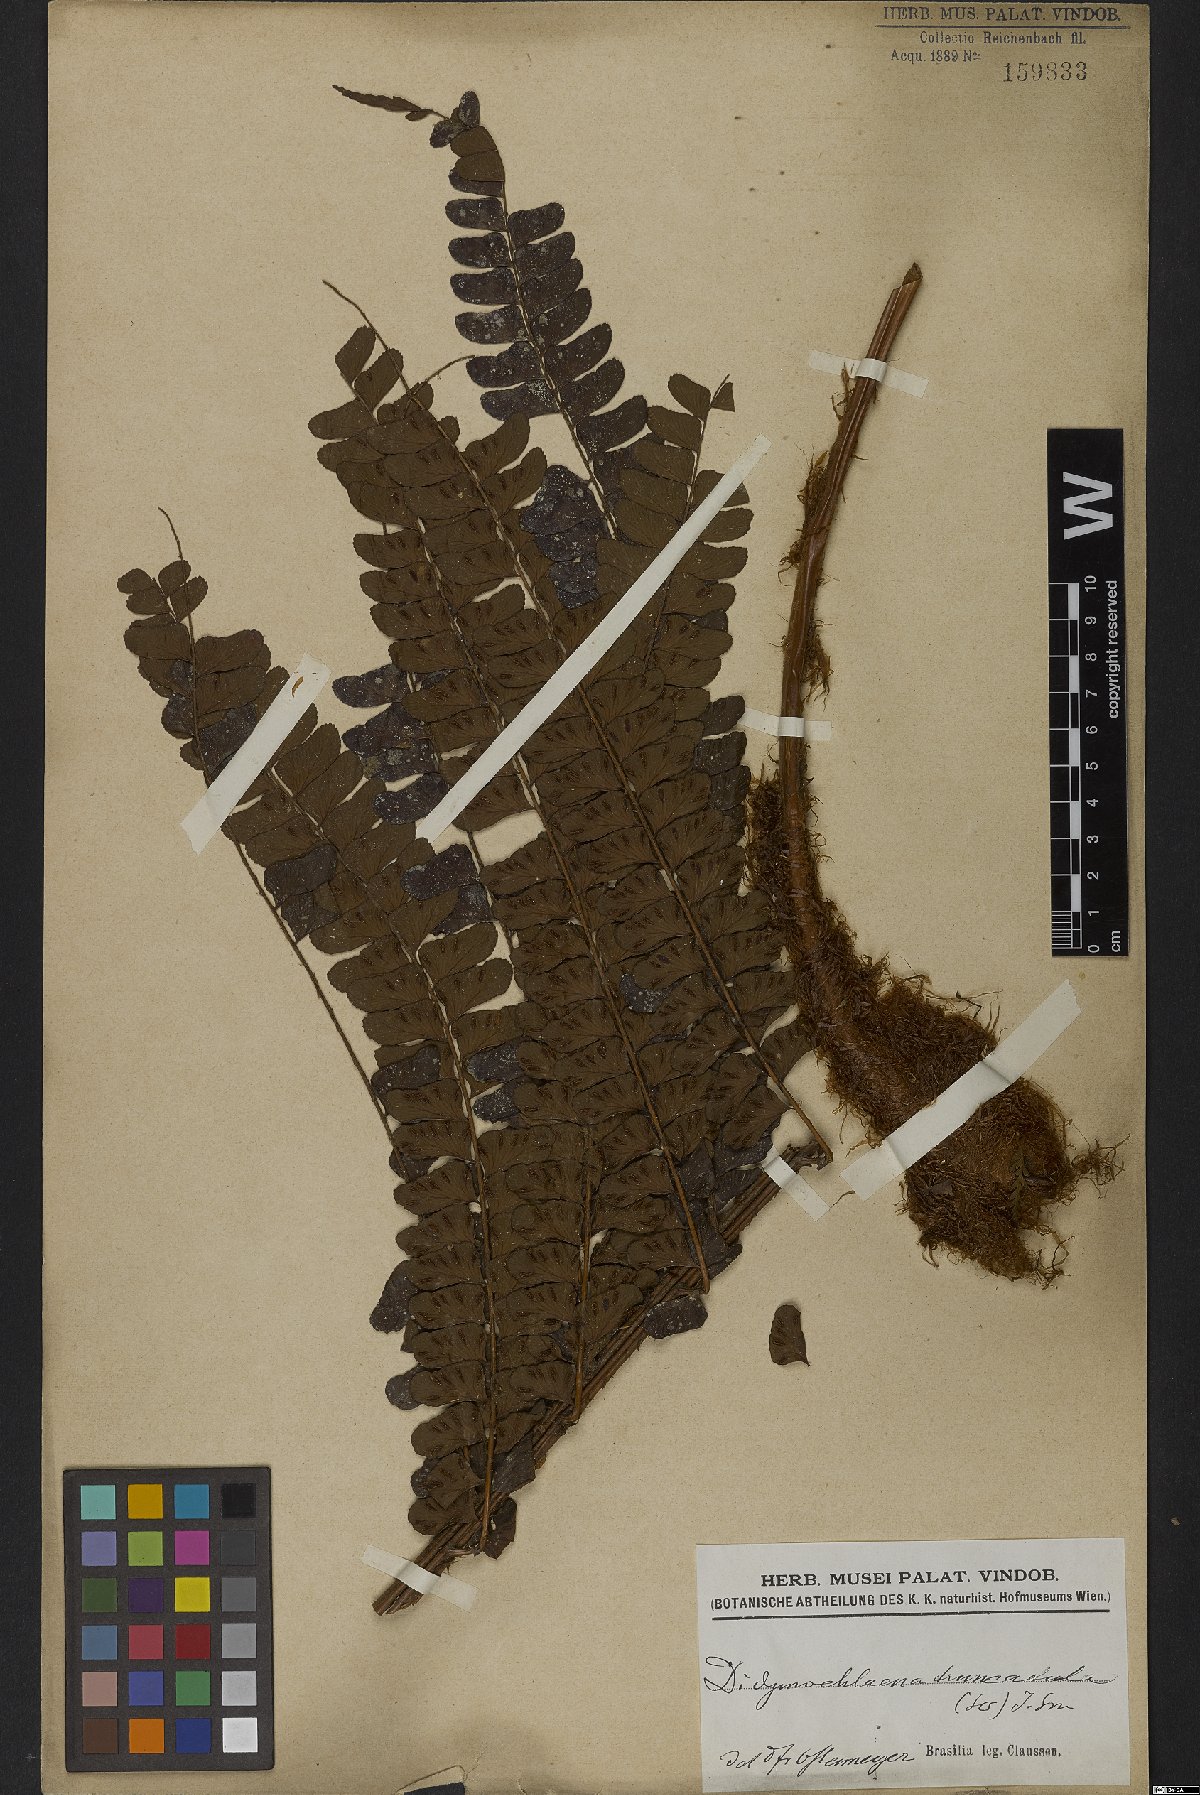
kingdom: Plantae
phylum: Tracheophyta
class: Polypodiopsida
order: Polypodiales
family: Didymochlaenaceae
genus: Didymochlaena
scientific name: Didymochlaena truncatula
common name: Mahogany fern
